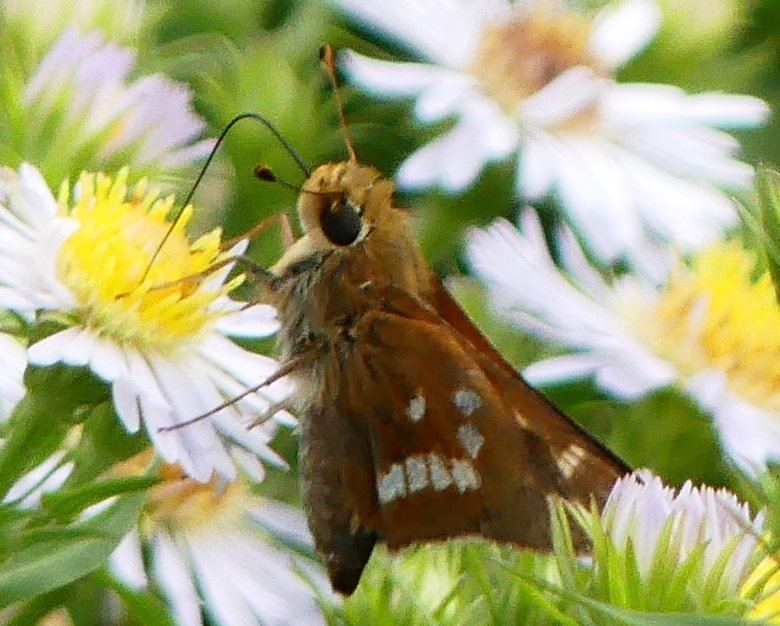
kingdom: Animalia
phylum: Arthropoda
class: Insecta
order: Lepidoptera
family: Hesperiidae
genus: Hesperia
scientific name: Hesperia leonardus
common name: Leonard's Skipper
